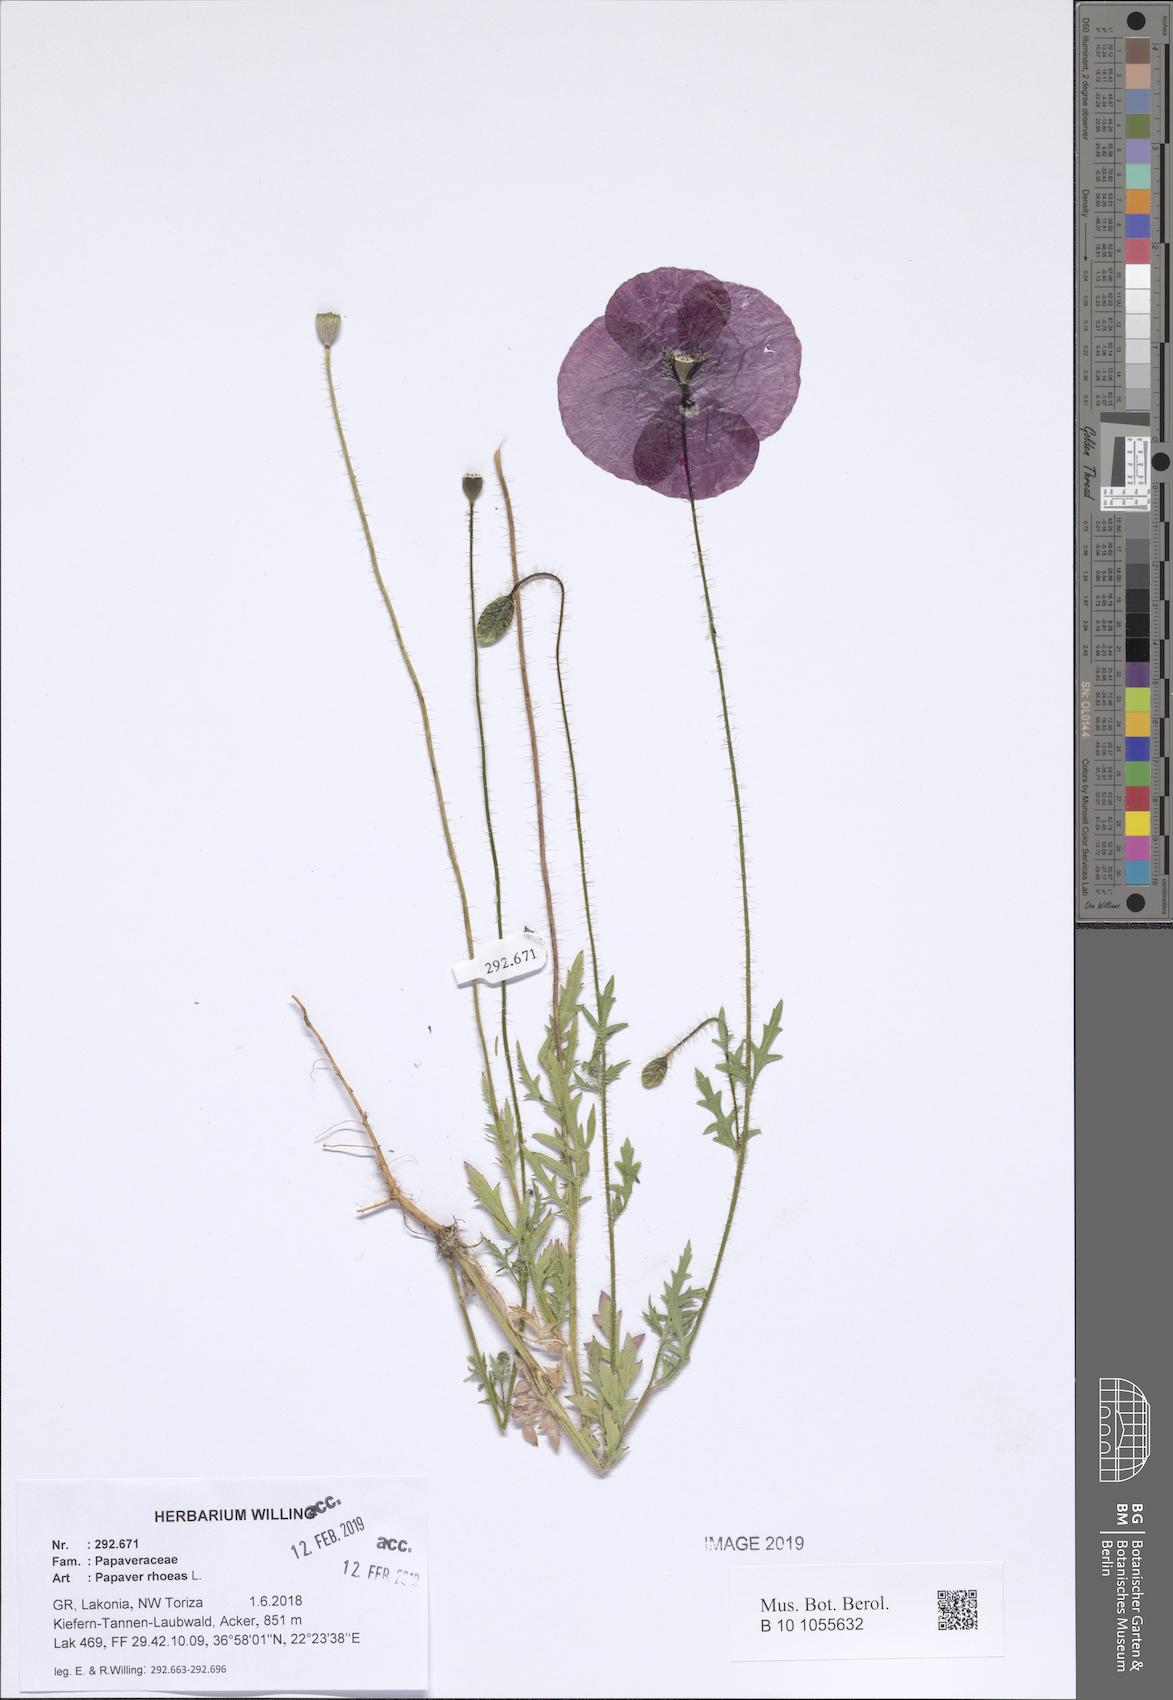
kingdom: Plantae
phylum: Tracheophyta
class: Magnoliopsida
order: Ranunculales
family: Papaveraceae
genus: Papaver
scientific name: Papaver rhoeas
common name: Corn poppy
